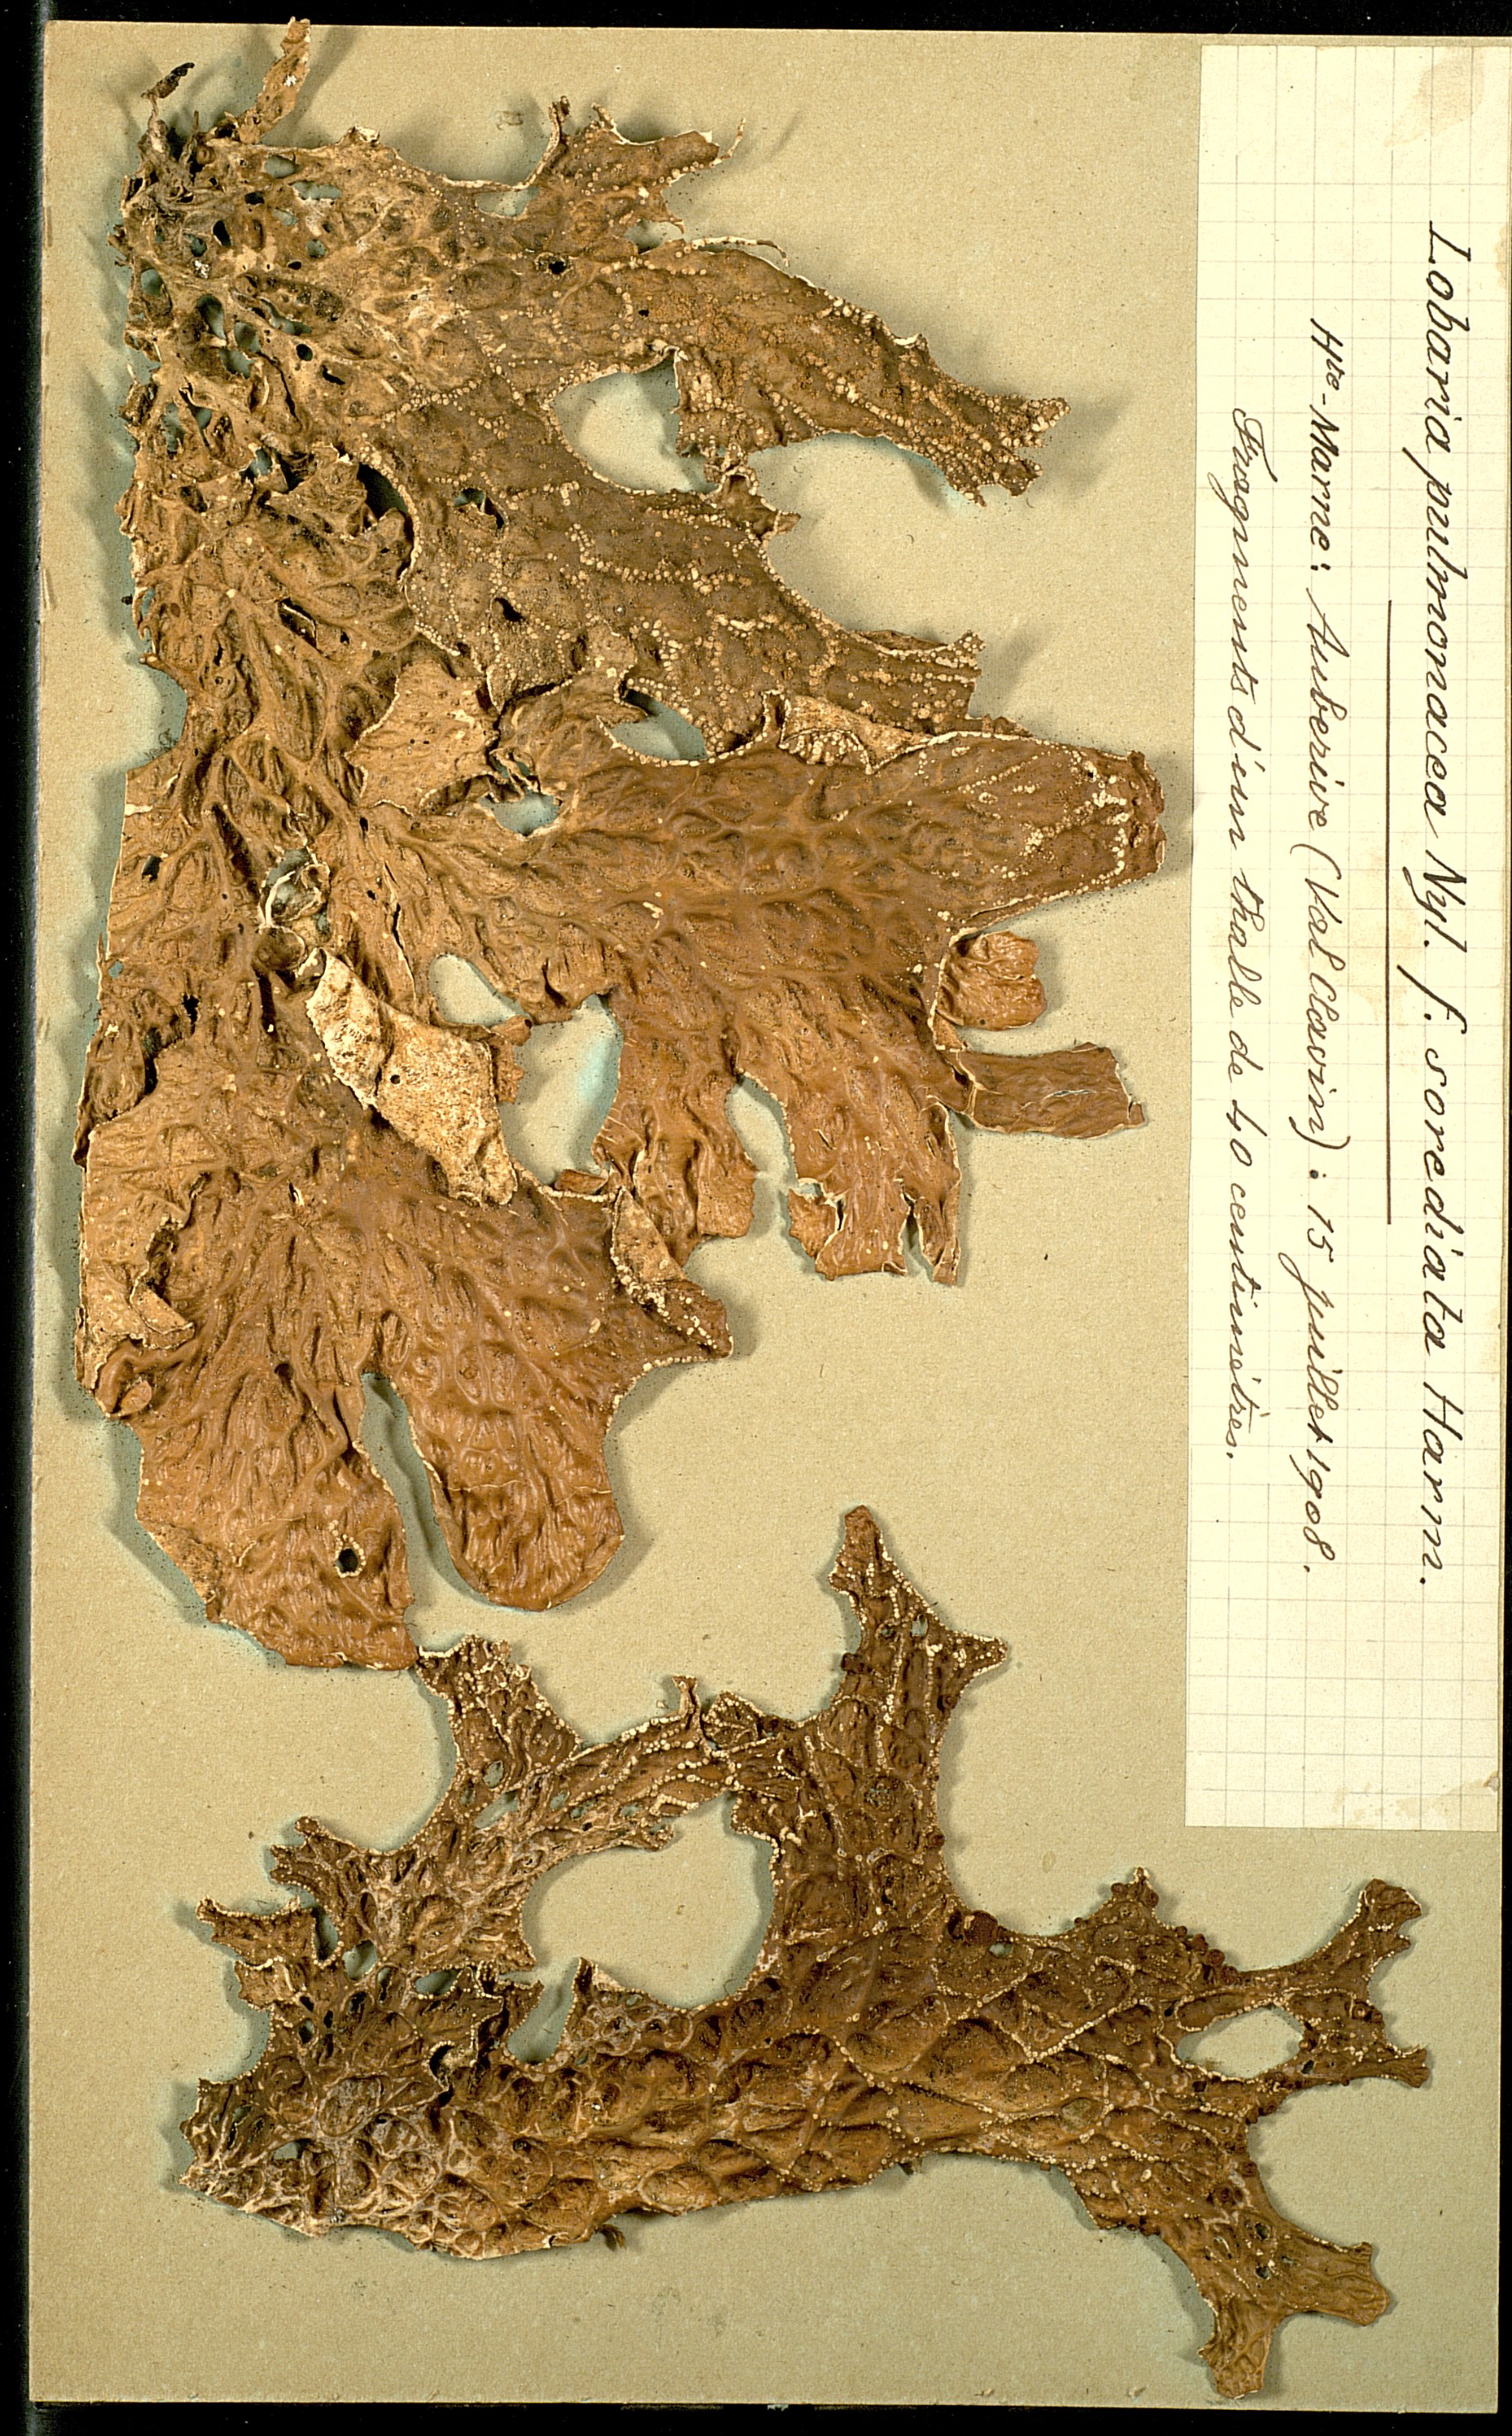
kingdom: Fungi
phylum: Ascomycota
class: Lecanoromycetes
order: Peltigerales
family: Lobariaceae
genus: Lobaria
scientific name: Lobaria pulmonaria
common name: Lungwort
